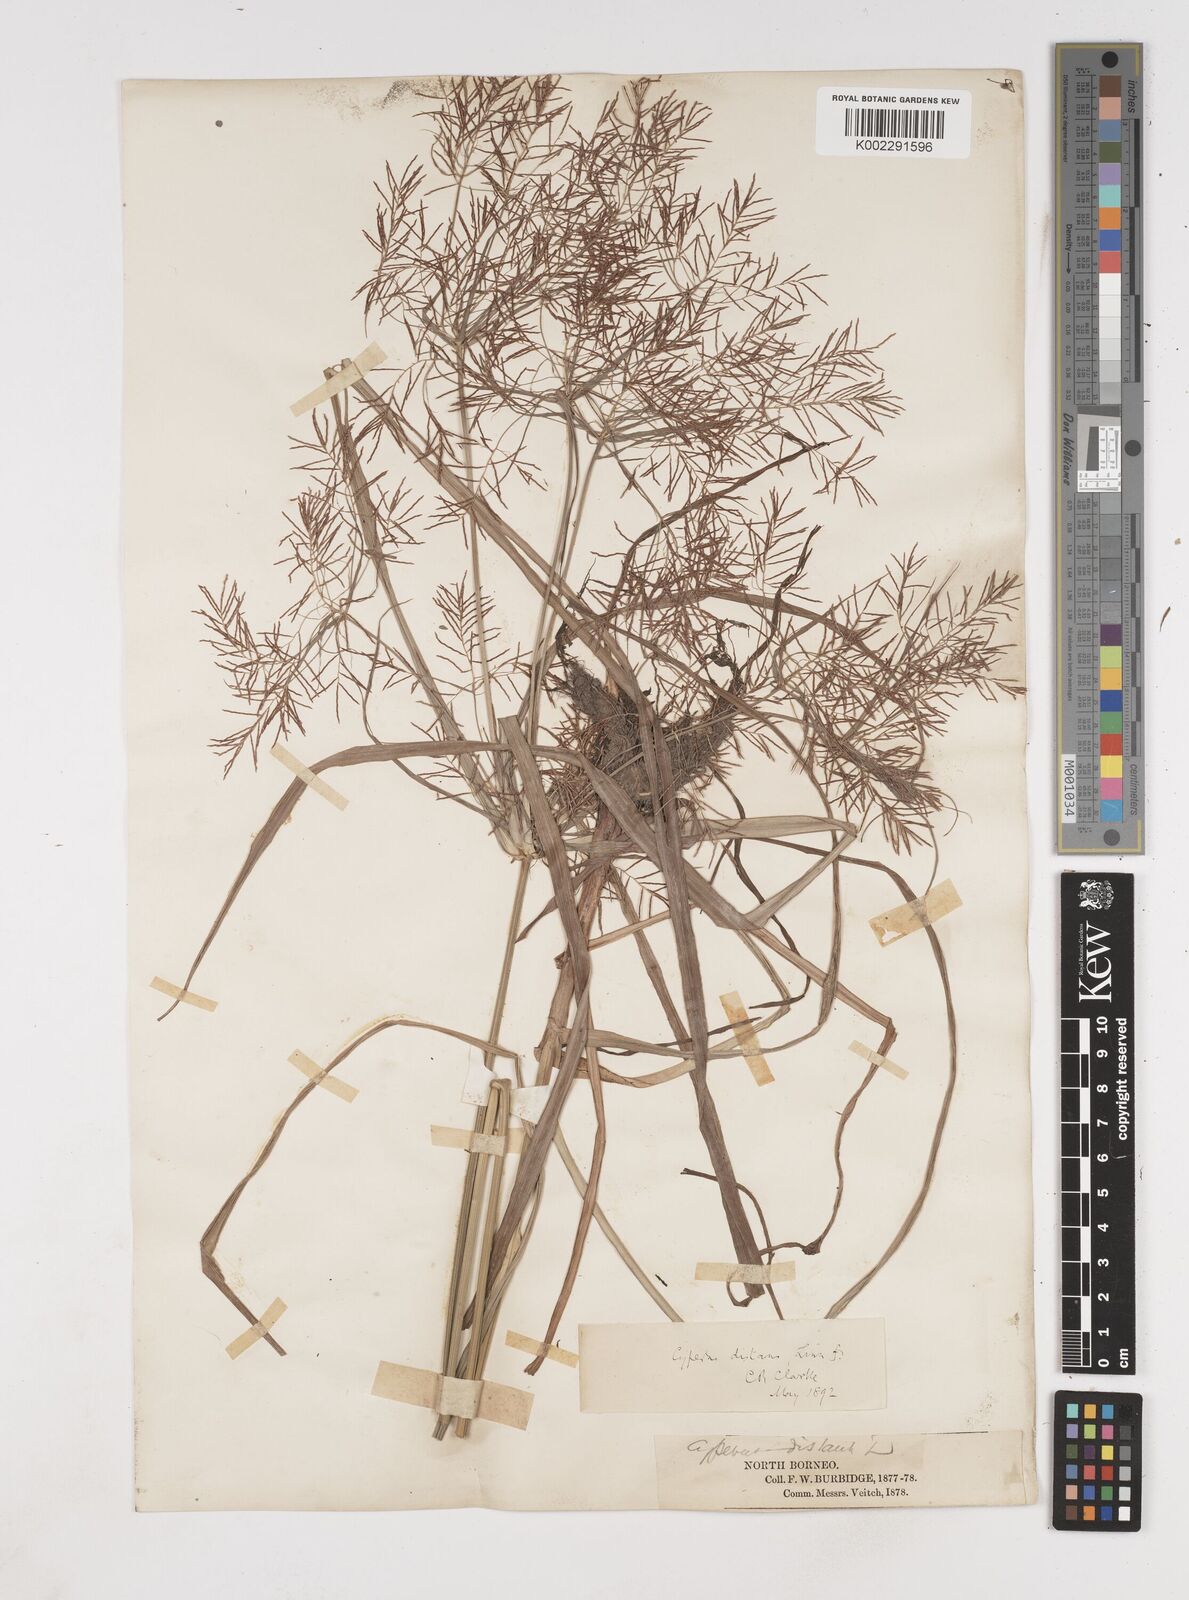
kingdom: Plantae
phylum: Tracheophyta
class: Liliopsida
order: Poales
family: Cyperaceae
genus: Cyperus
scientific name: Cyperus distans
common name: Slender cyperus
